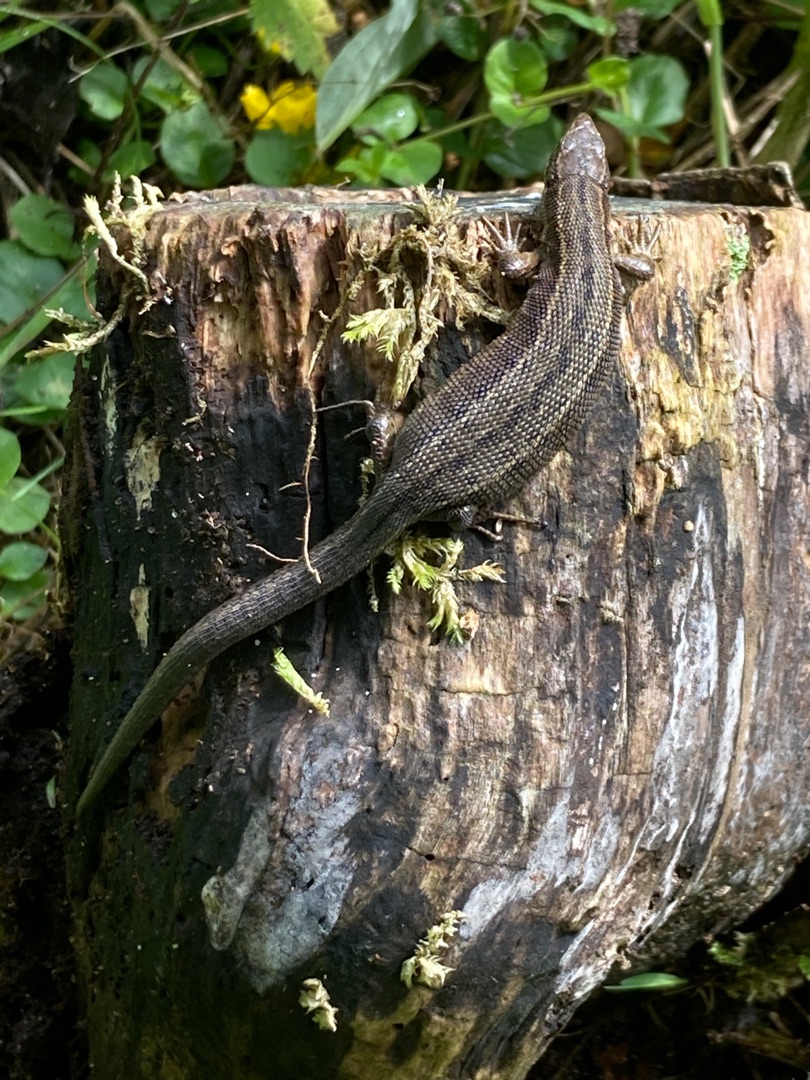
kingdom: Animalia
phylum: Chordata
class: Squamata
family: Lacertidae
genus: Zootoca
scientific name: Zootoca vivipara
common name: Skovfirben
